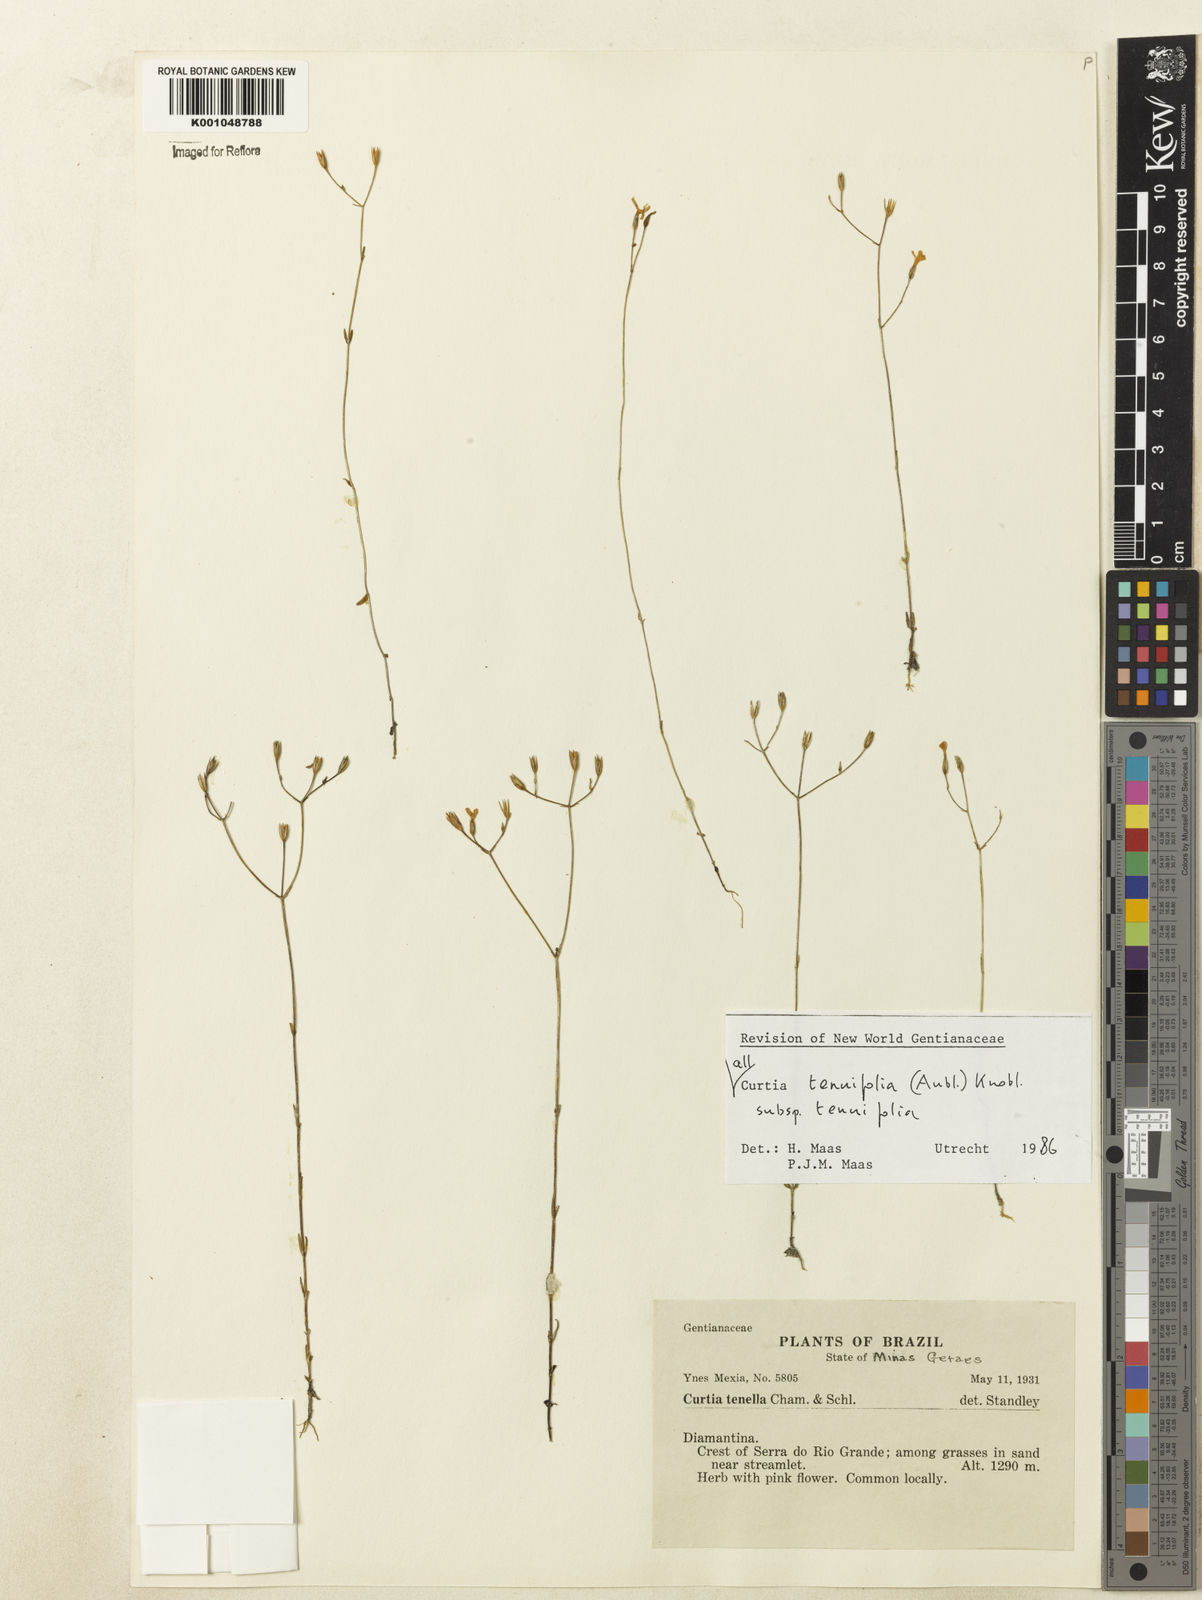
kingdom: Plantae
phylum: Tracheophyta
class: Magnoliopsida
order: Gentianales
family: Gentianaceae
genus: Curtia
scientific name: Curtia tenuifolia
